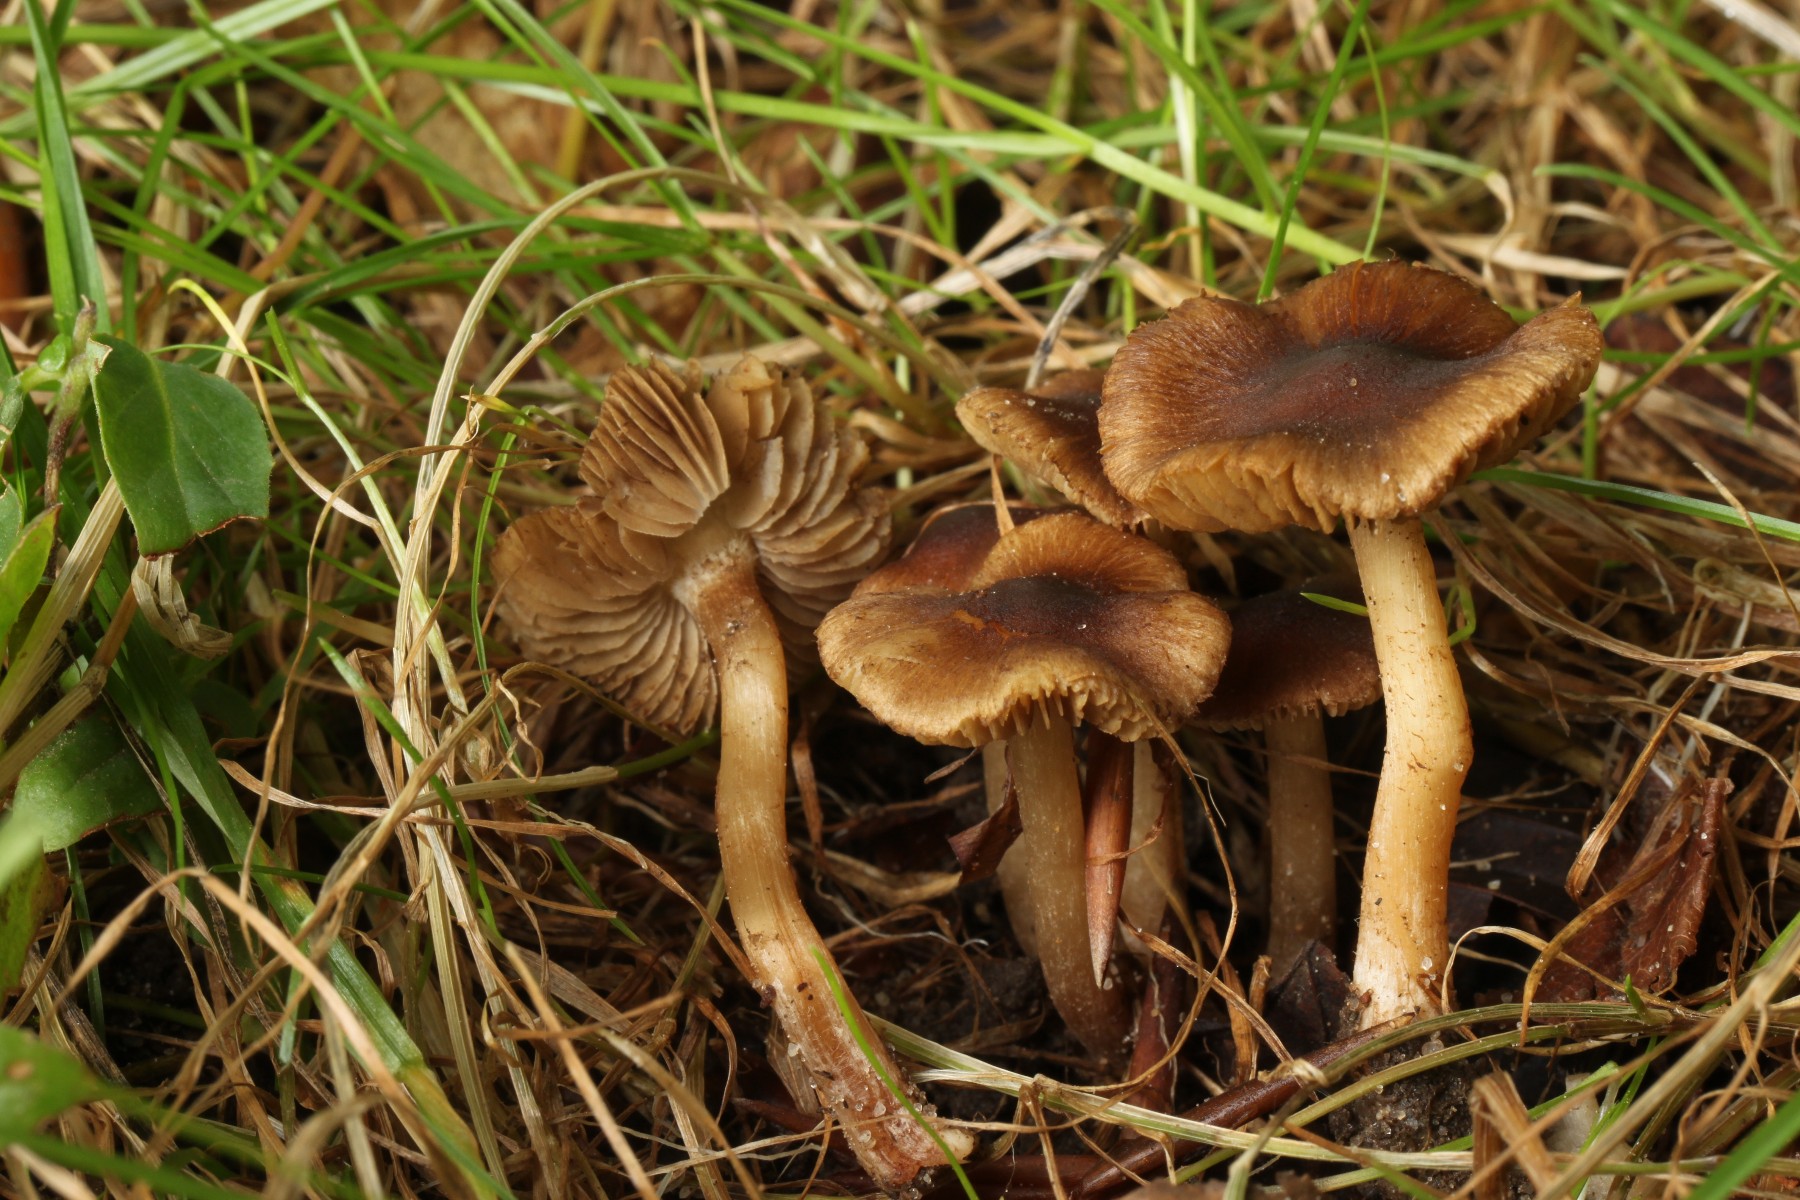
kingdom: Fungi
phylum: Basidiomycota
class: Agaricomycetes
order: Agaricales
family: Inocybaceae
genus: Inocybe
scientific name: Inocybe hamadryadis
